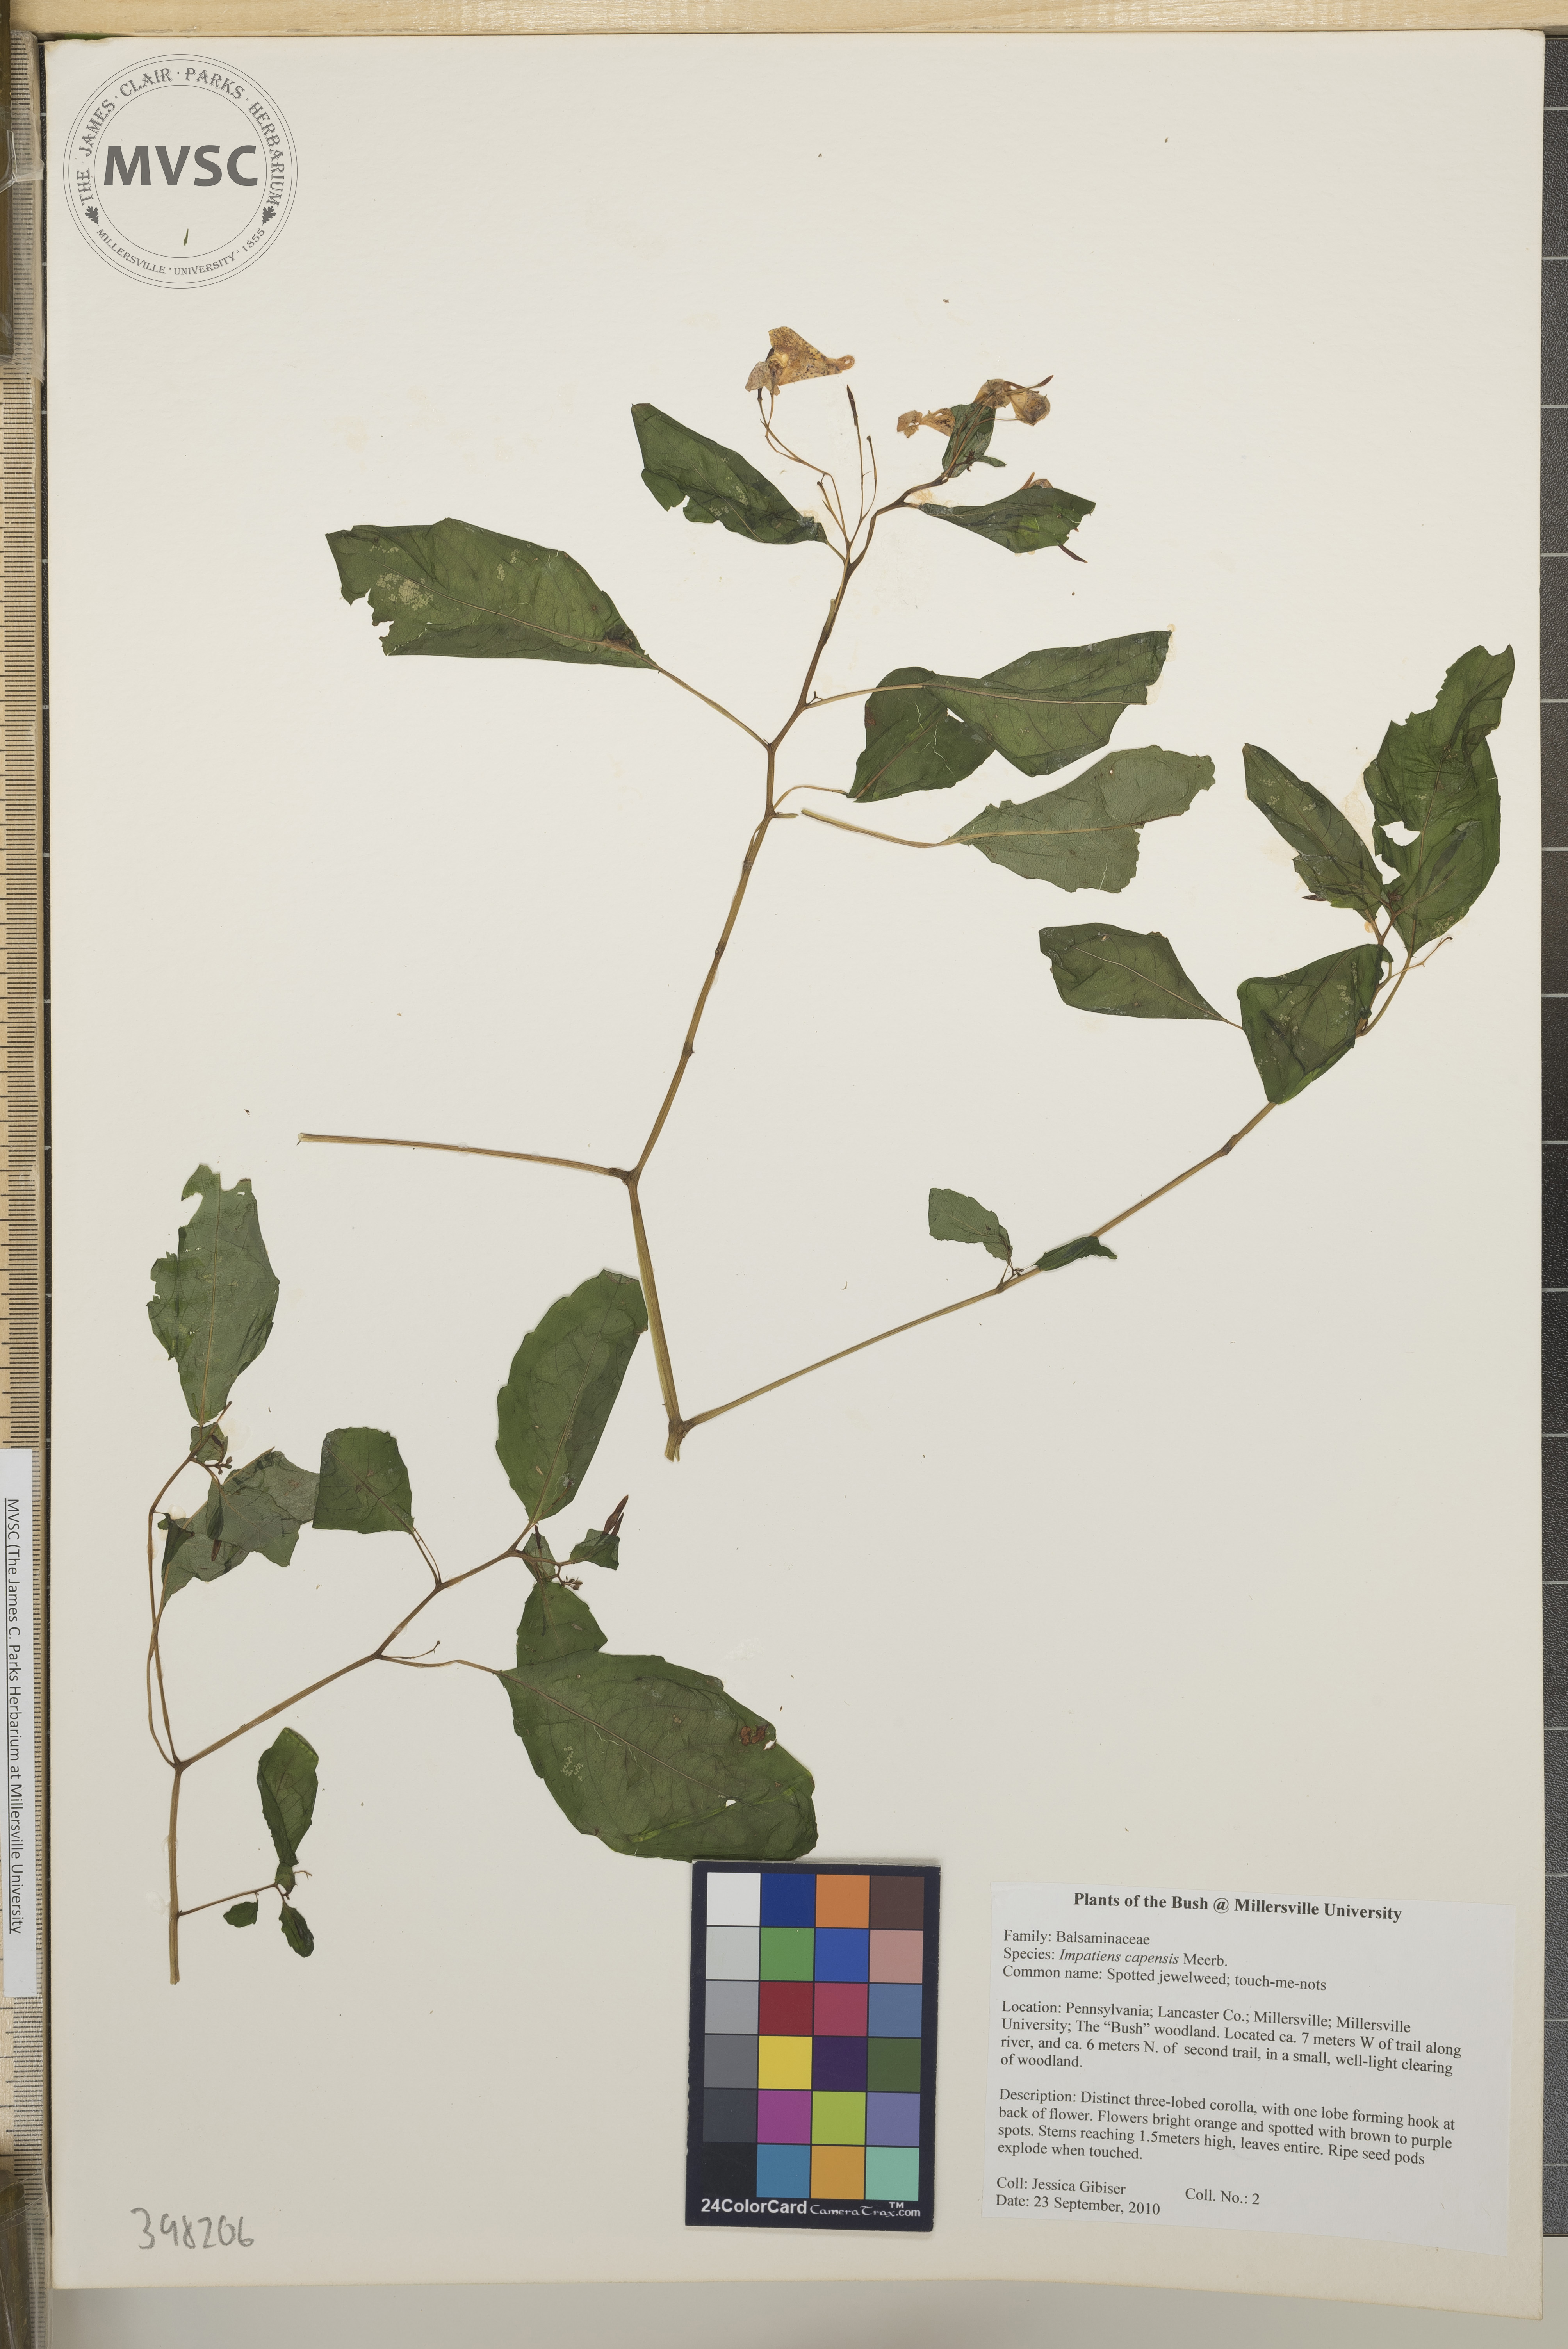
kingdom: Plantae
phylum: Tracheophyta
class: Magnoliopsida
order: Ericales
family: Balsaminaceae
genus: Impatiens
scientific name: Impatiens capensis
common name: Jewelweed
